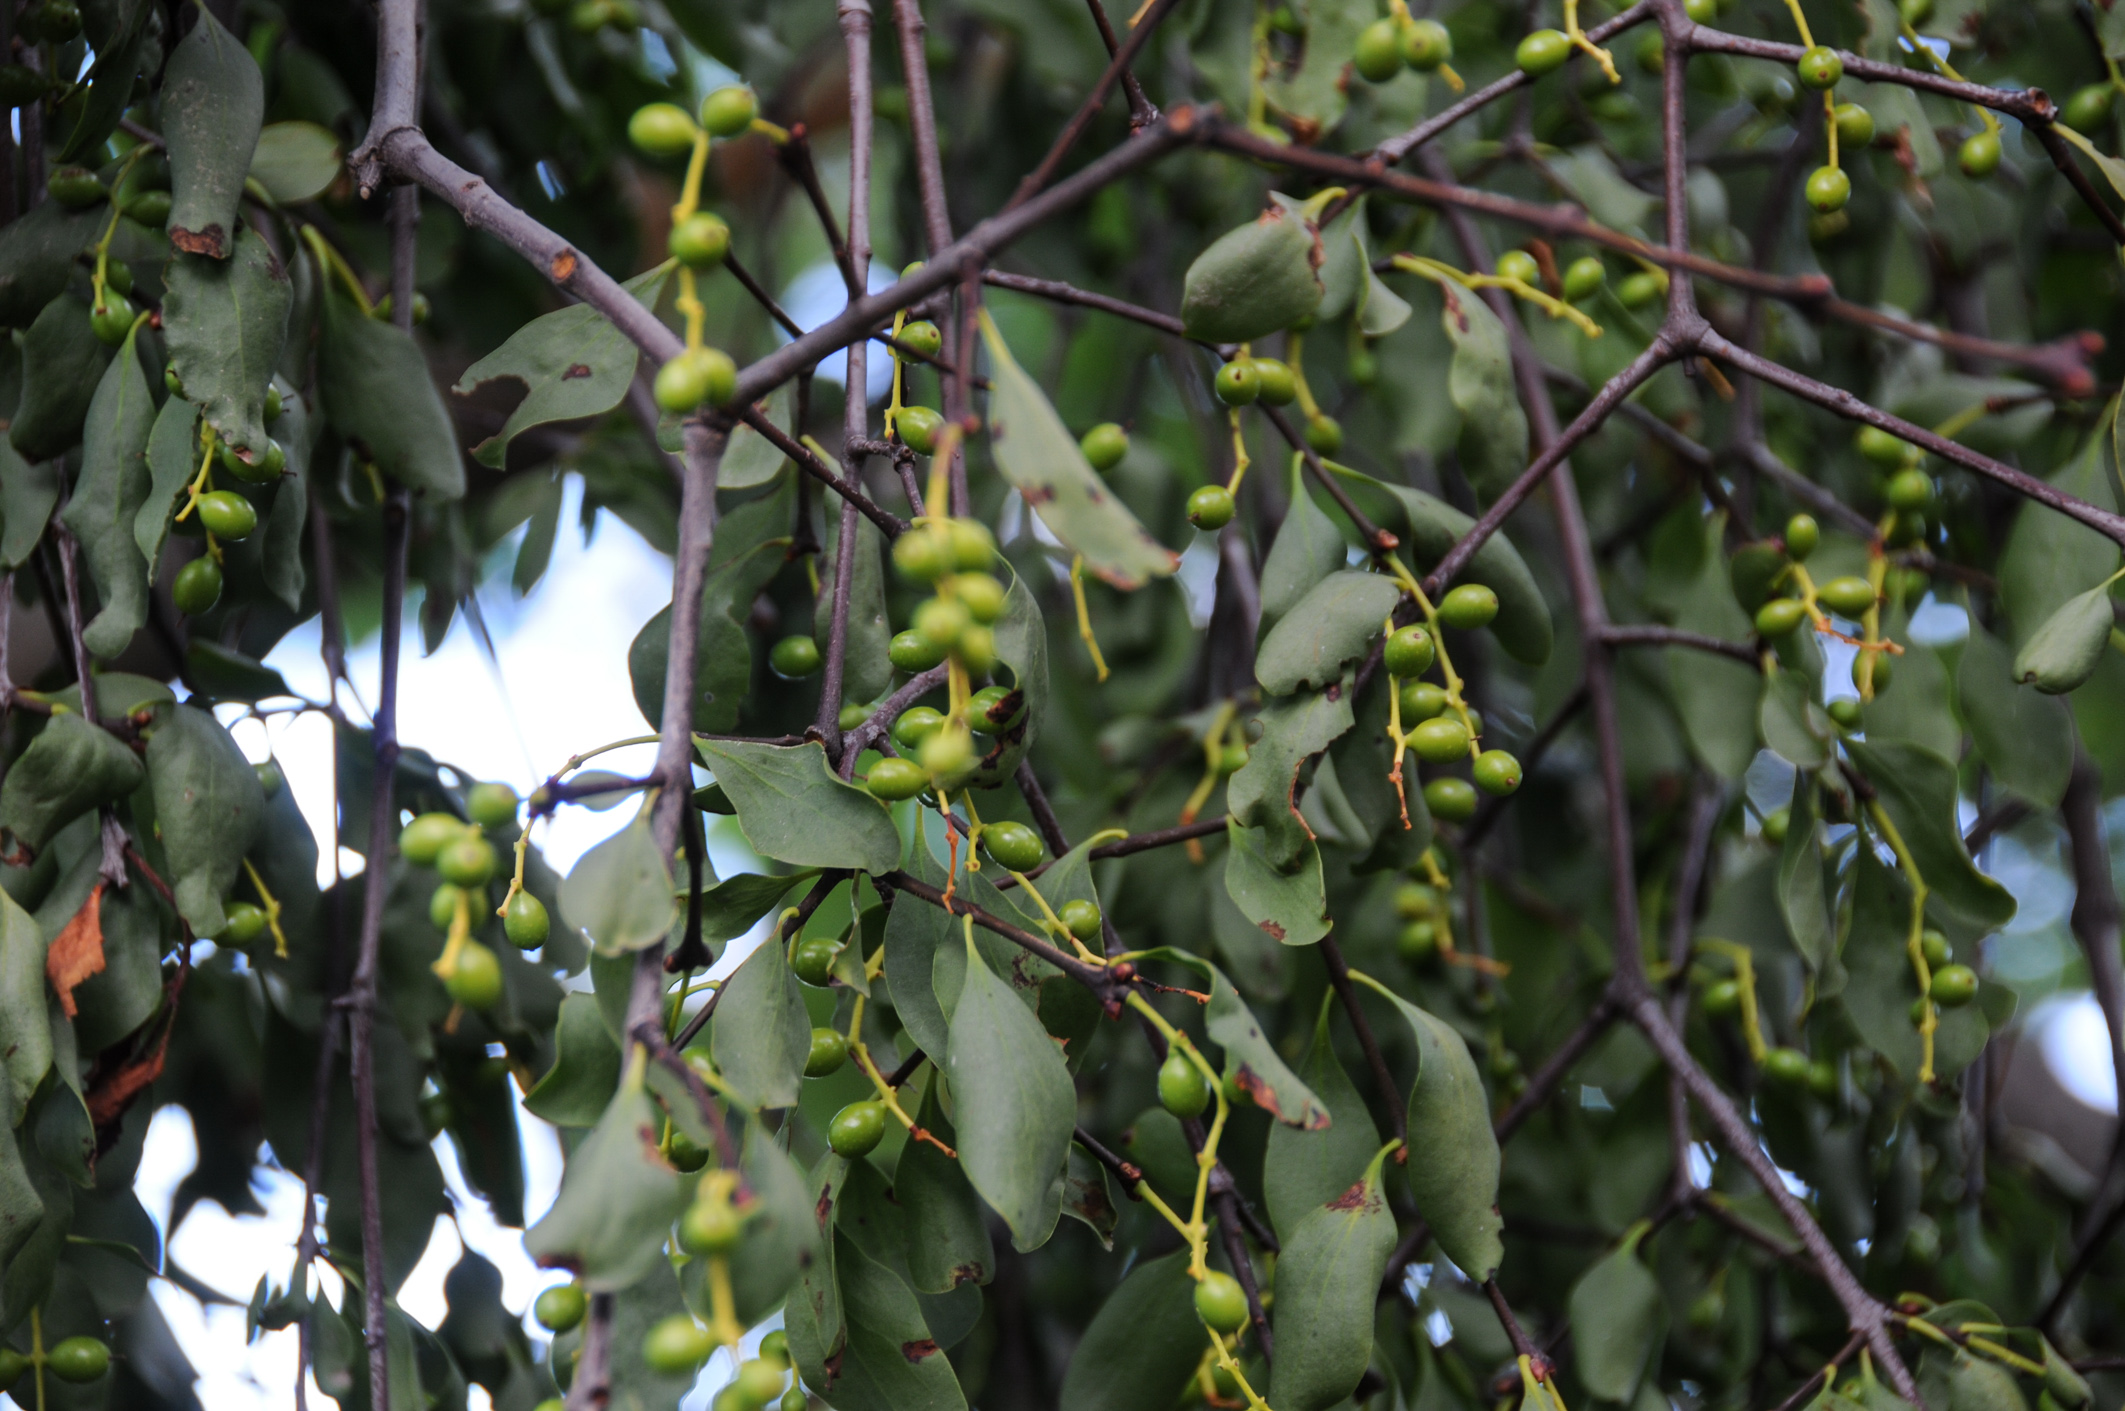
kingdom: Plantae
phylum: Tracheophyta
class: Magnoliopsida
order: Santalales
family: Loranthaceae
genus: Loranthus
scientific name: Loranthus europaeus
